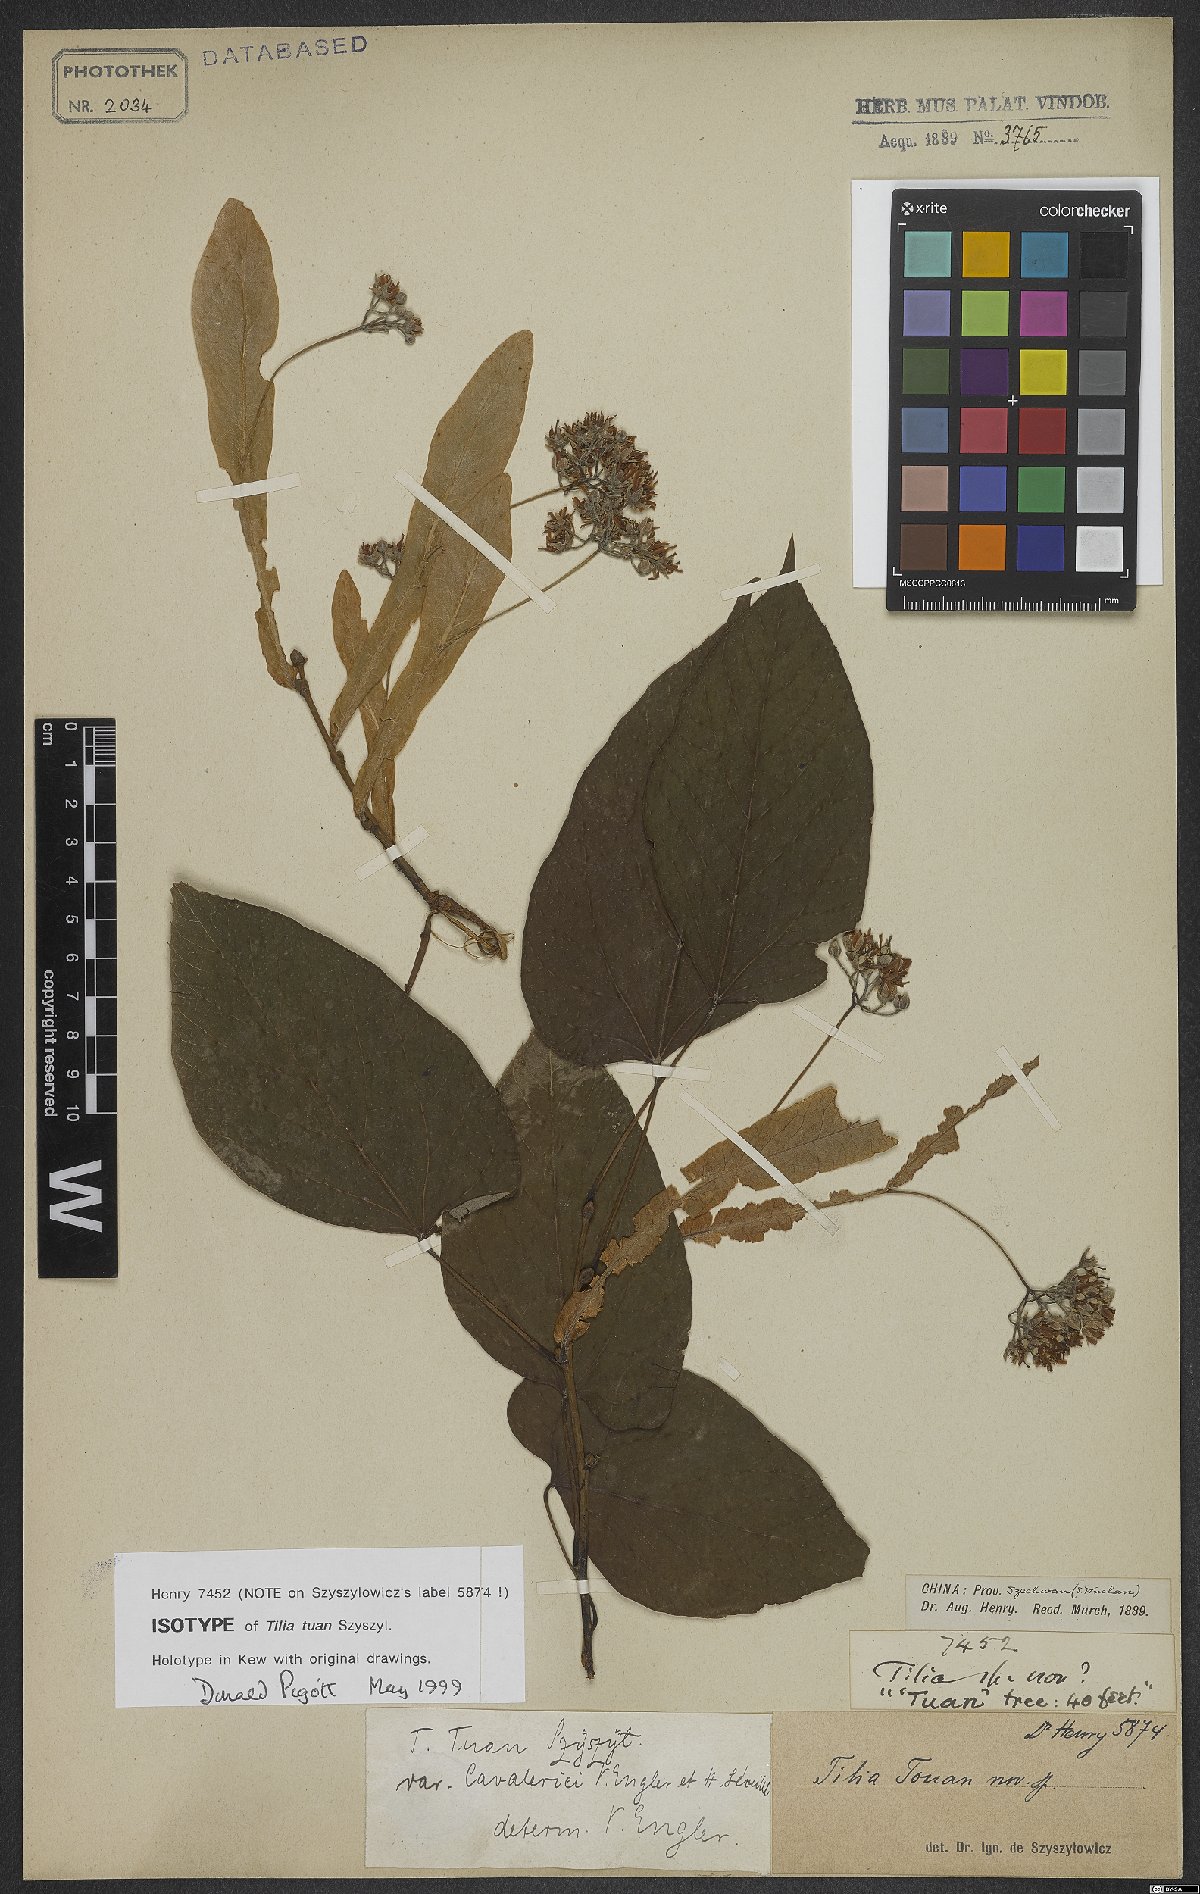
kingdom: Plantae
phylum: Tracheophyta
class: Magnoliopsida
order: Malvales
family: Malvaceae
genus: Tilia
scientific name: Tilia tuan
